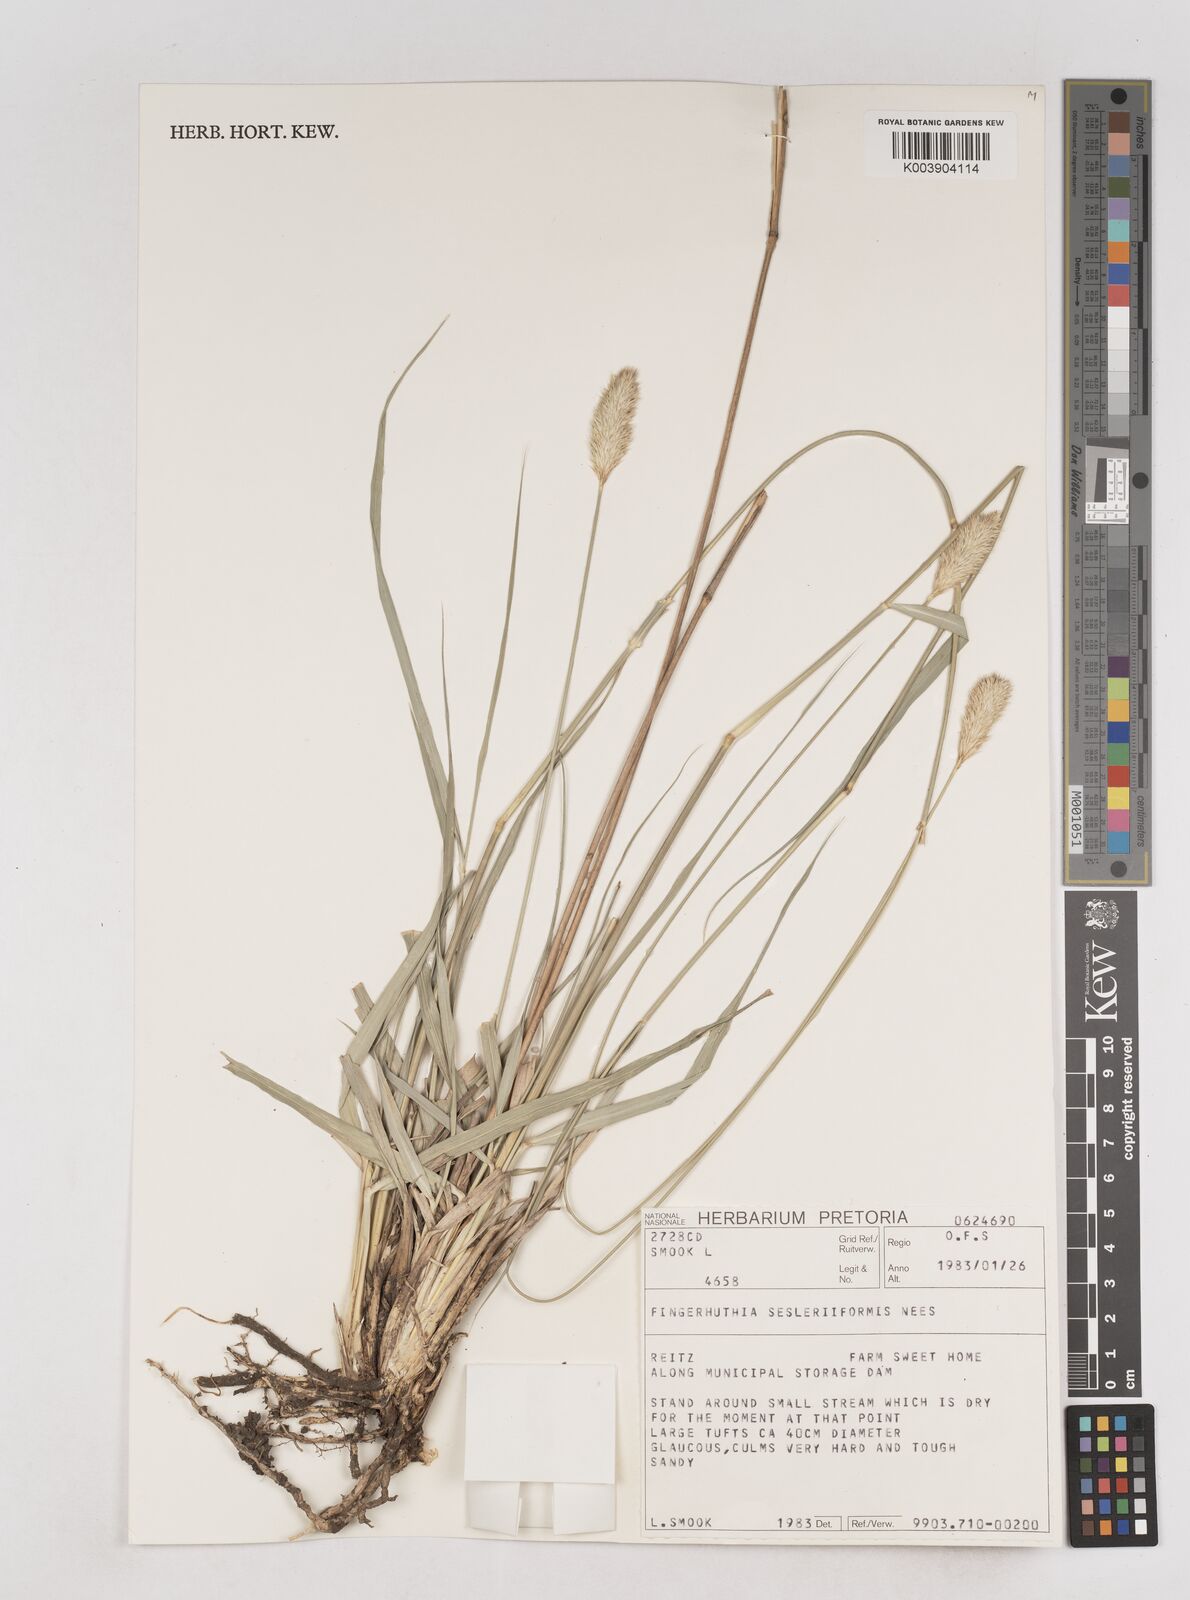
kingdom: Plantae
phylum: Tracheophyta
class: Liliopsida
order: Poales
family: Poaceae
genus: Fingerhuthia
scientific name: Fingerhuthia sesleriiformis
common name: Thimble grass
